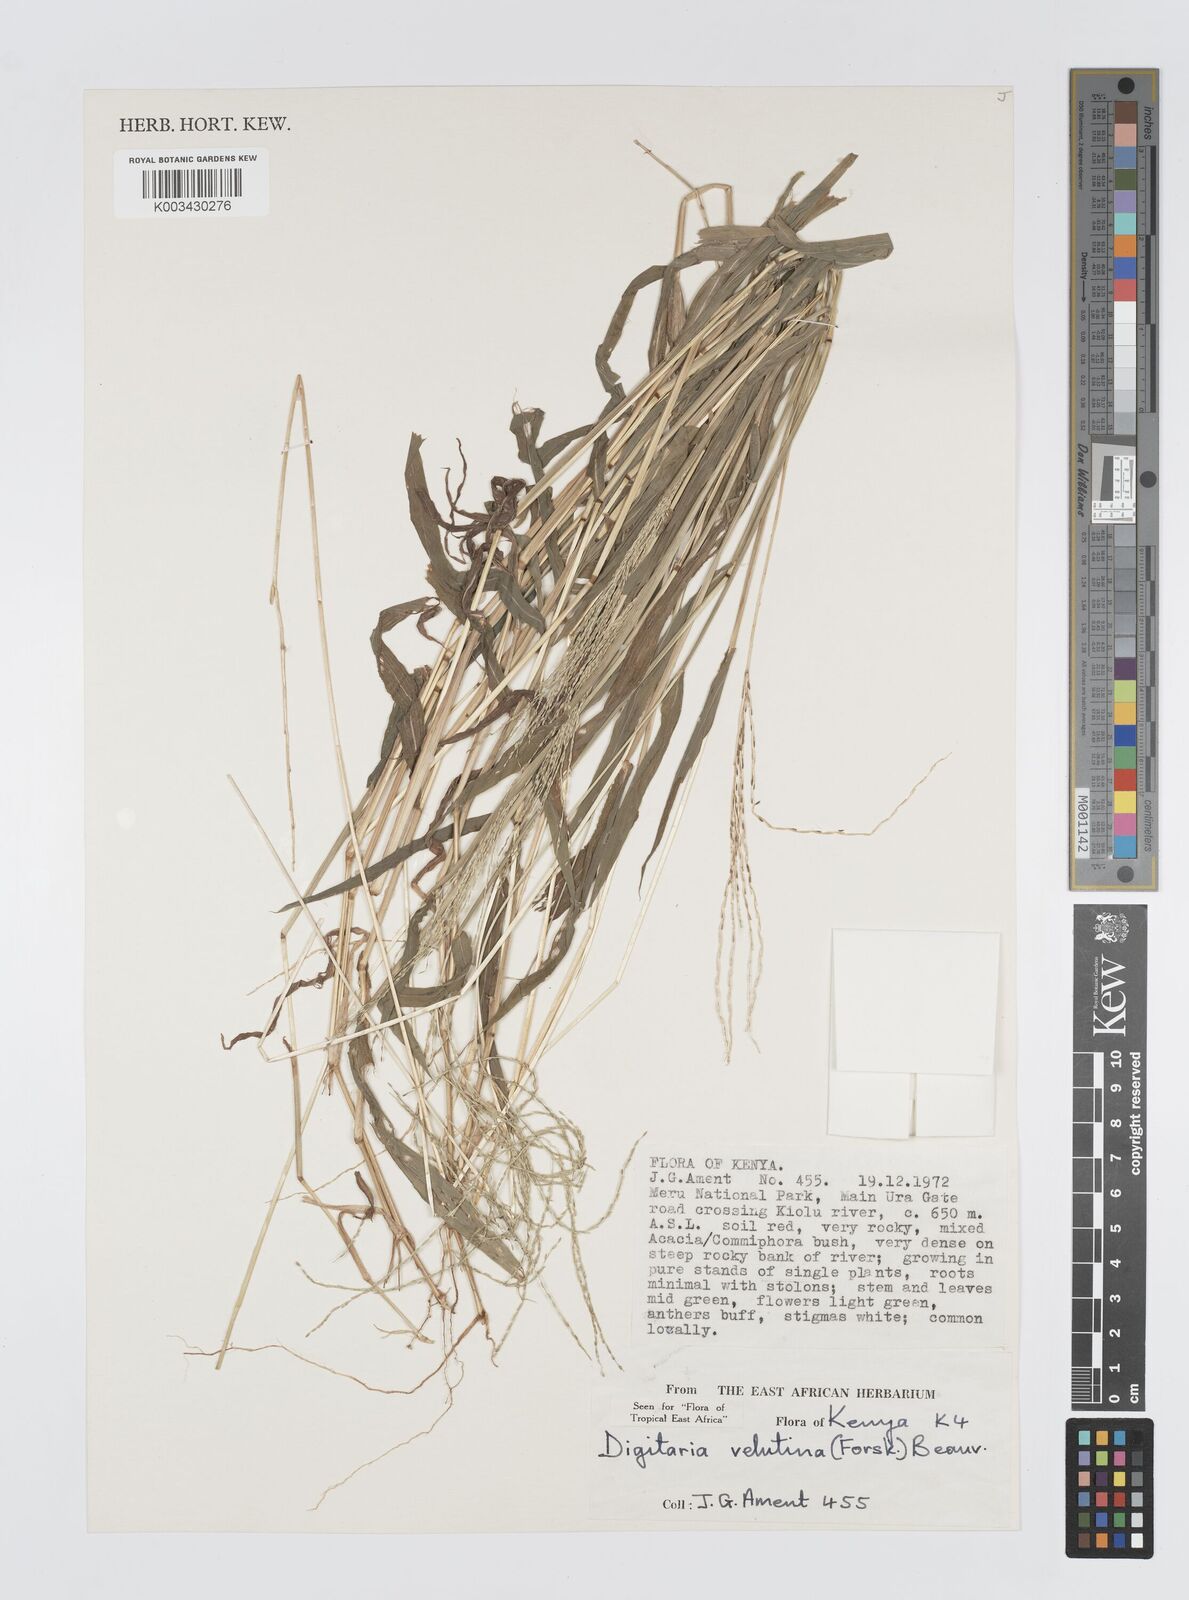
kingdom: Plantae
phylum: Tracheophyta
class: Liliopsida
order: Poales
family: Poaceae
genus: Digitaria
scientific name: Digitaria velutina
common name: Long-plume finger grass
